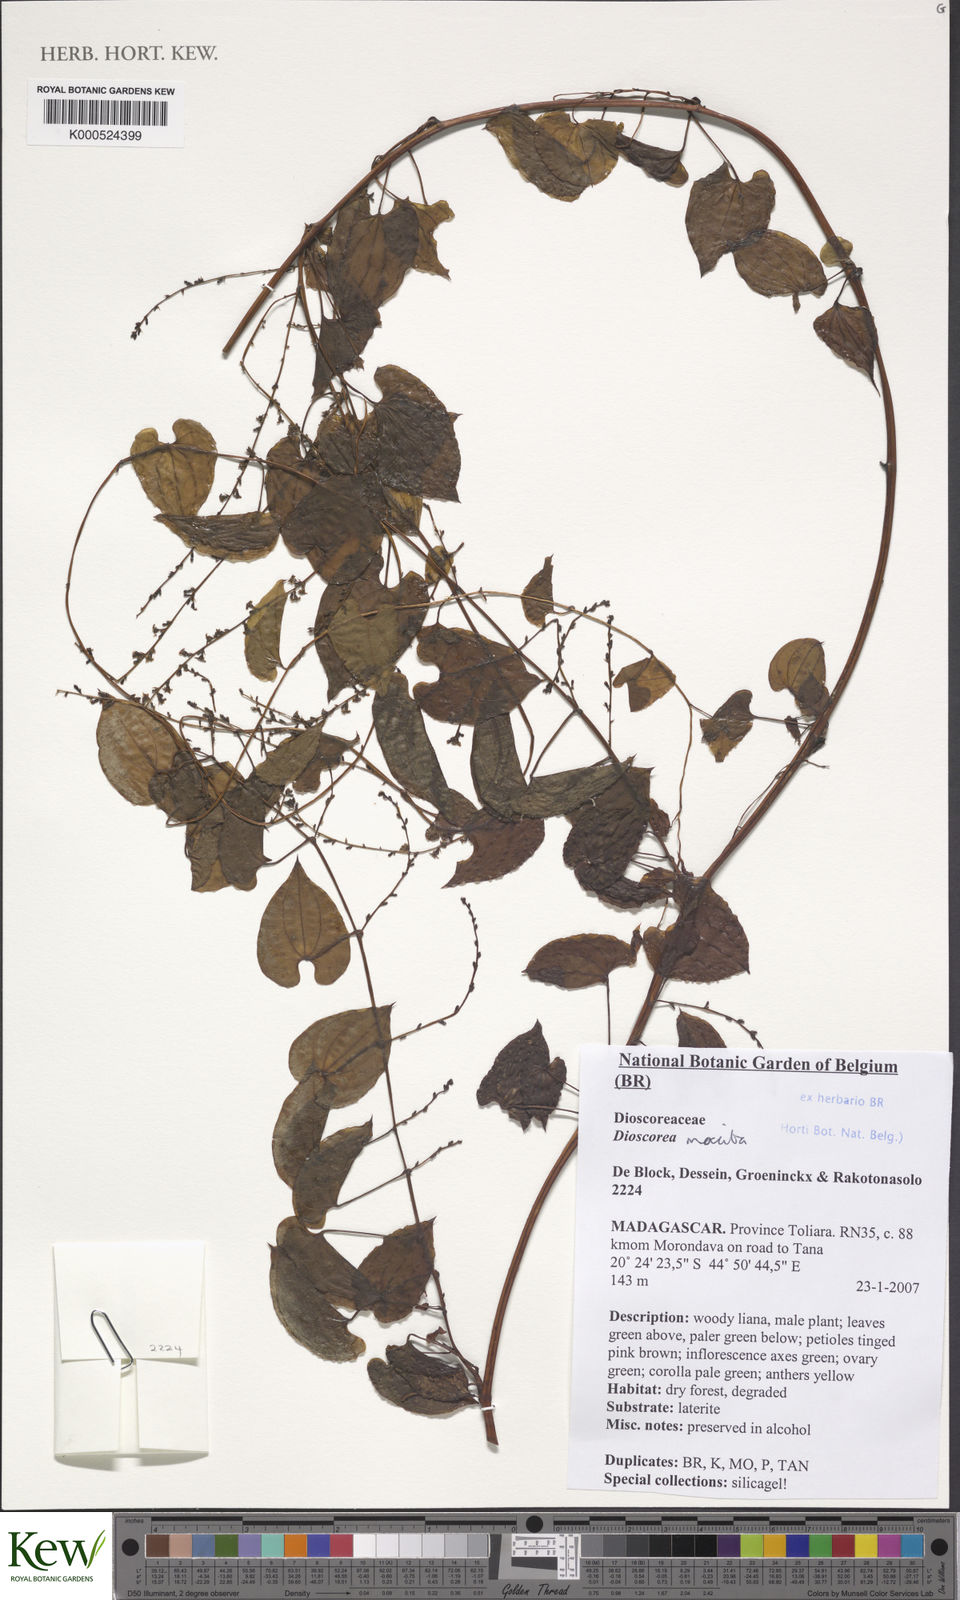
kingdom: Plantae
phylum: Tracheophyta
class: Liliopsida
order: Dioscoreales
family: Dioscoreaceae
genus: Dioscorea
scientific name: Dioscorea maciba
